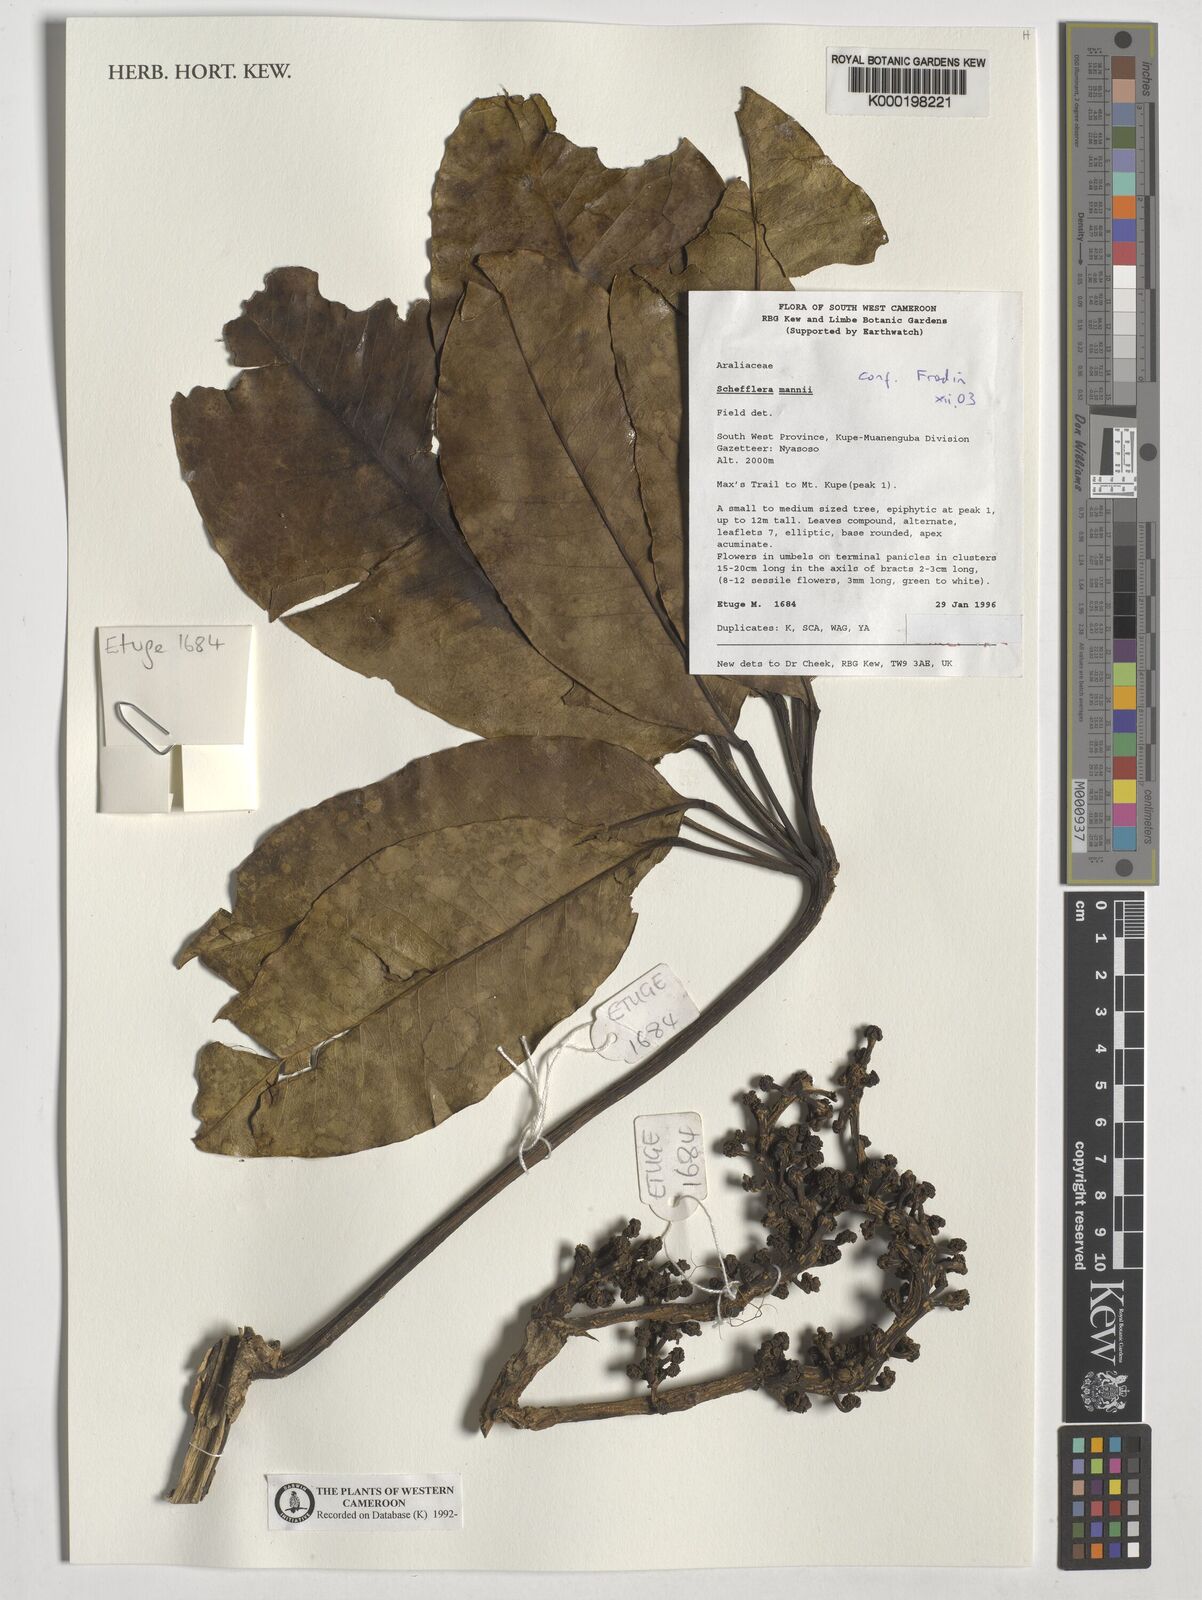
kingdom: Plantae
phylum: Tracheophyta
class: Magnoliopsida
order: Apiales
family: Araliaceae
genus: Astropanax
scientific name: Astropanax mannii
